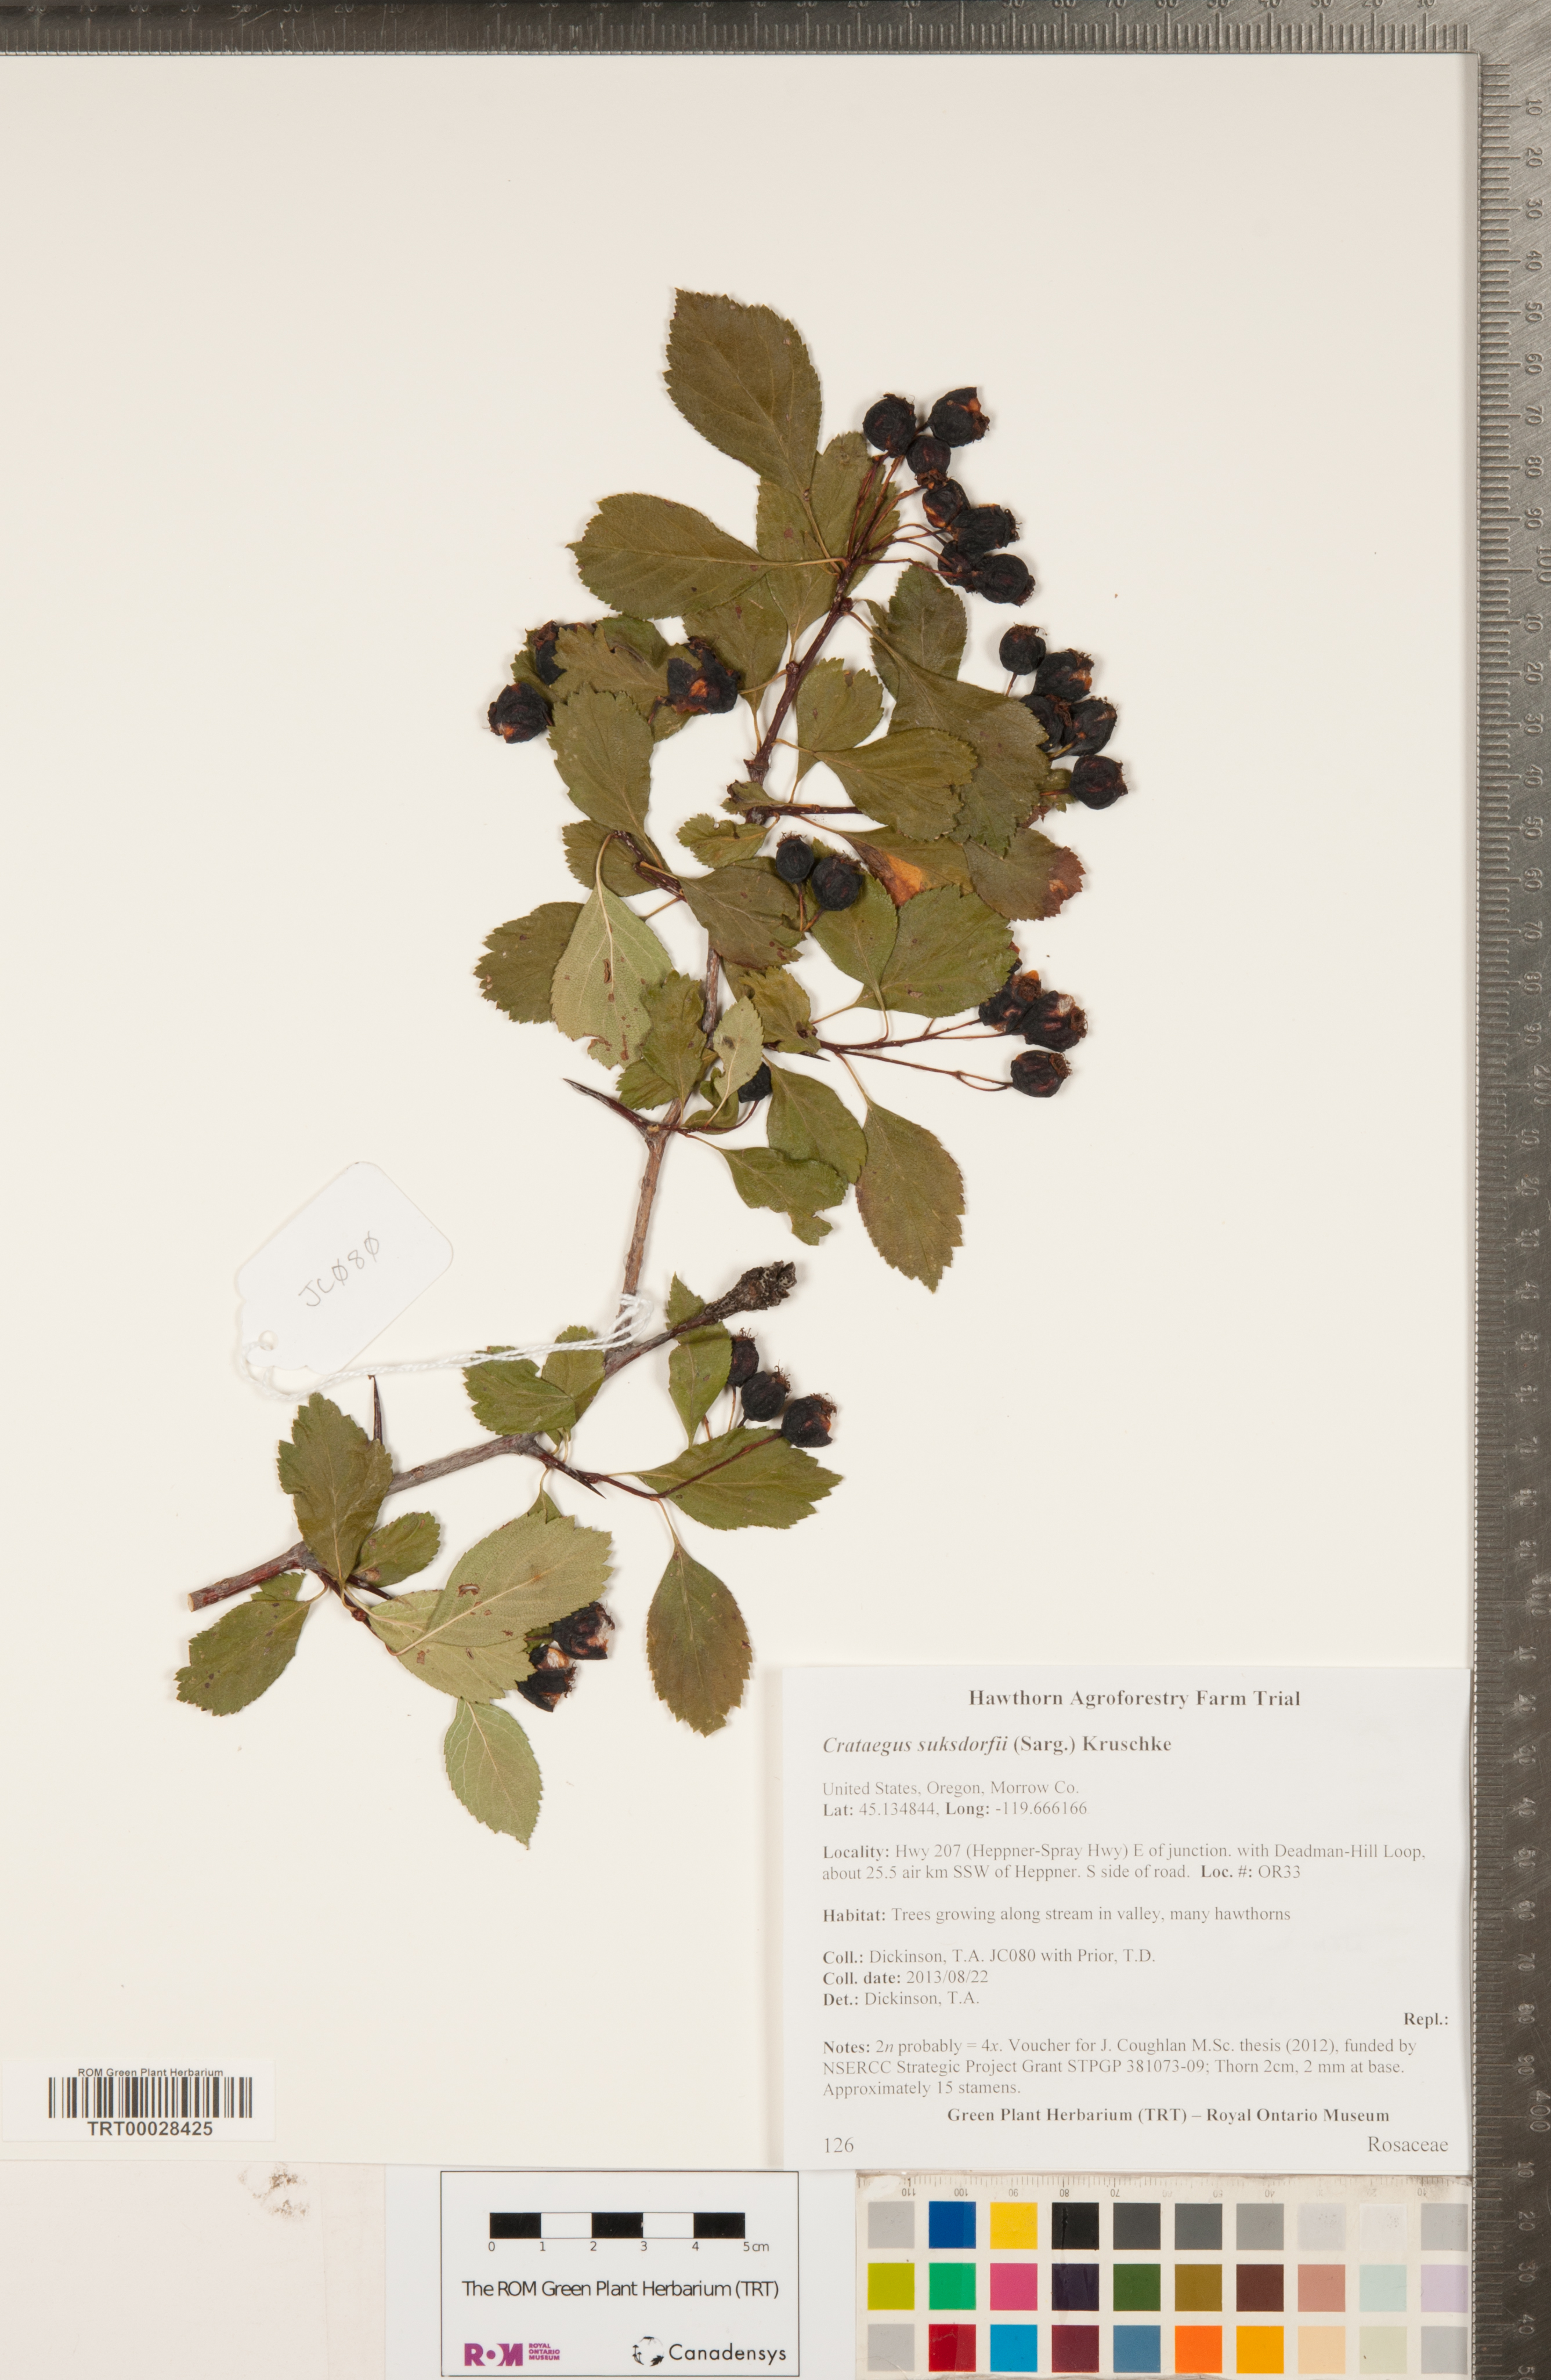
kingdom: Plantae
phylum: Tracheophyta
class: Magnoliopsida
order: Rosales
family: Rosaceae
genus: Crataegus
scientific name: Crataegus gaylussacia
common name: Huckleberry hawthorn
